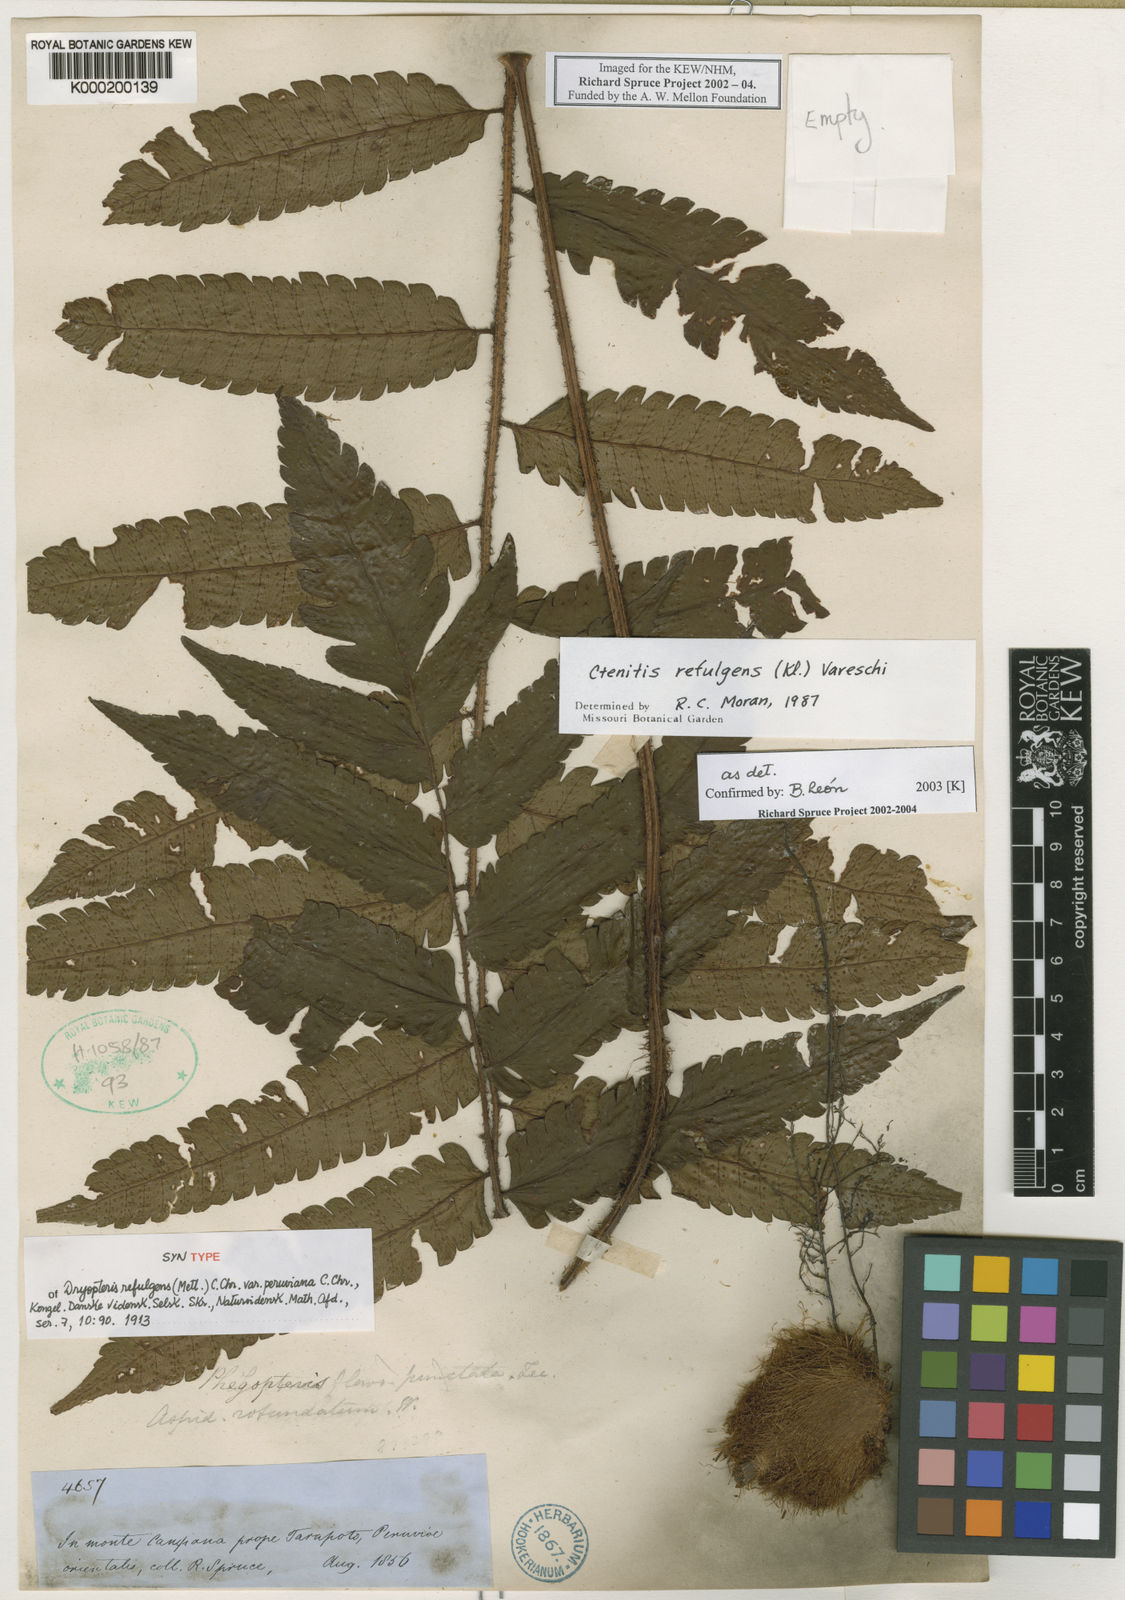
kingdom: Plantae
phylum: Tracheophyta
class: Polypodiopsida
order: Polypodiales
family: Dryopteridaceae
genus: Ctenitis
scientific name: Ctenitis refulgens
